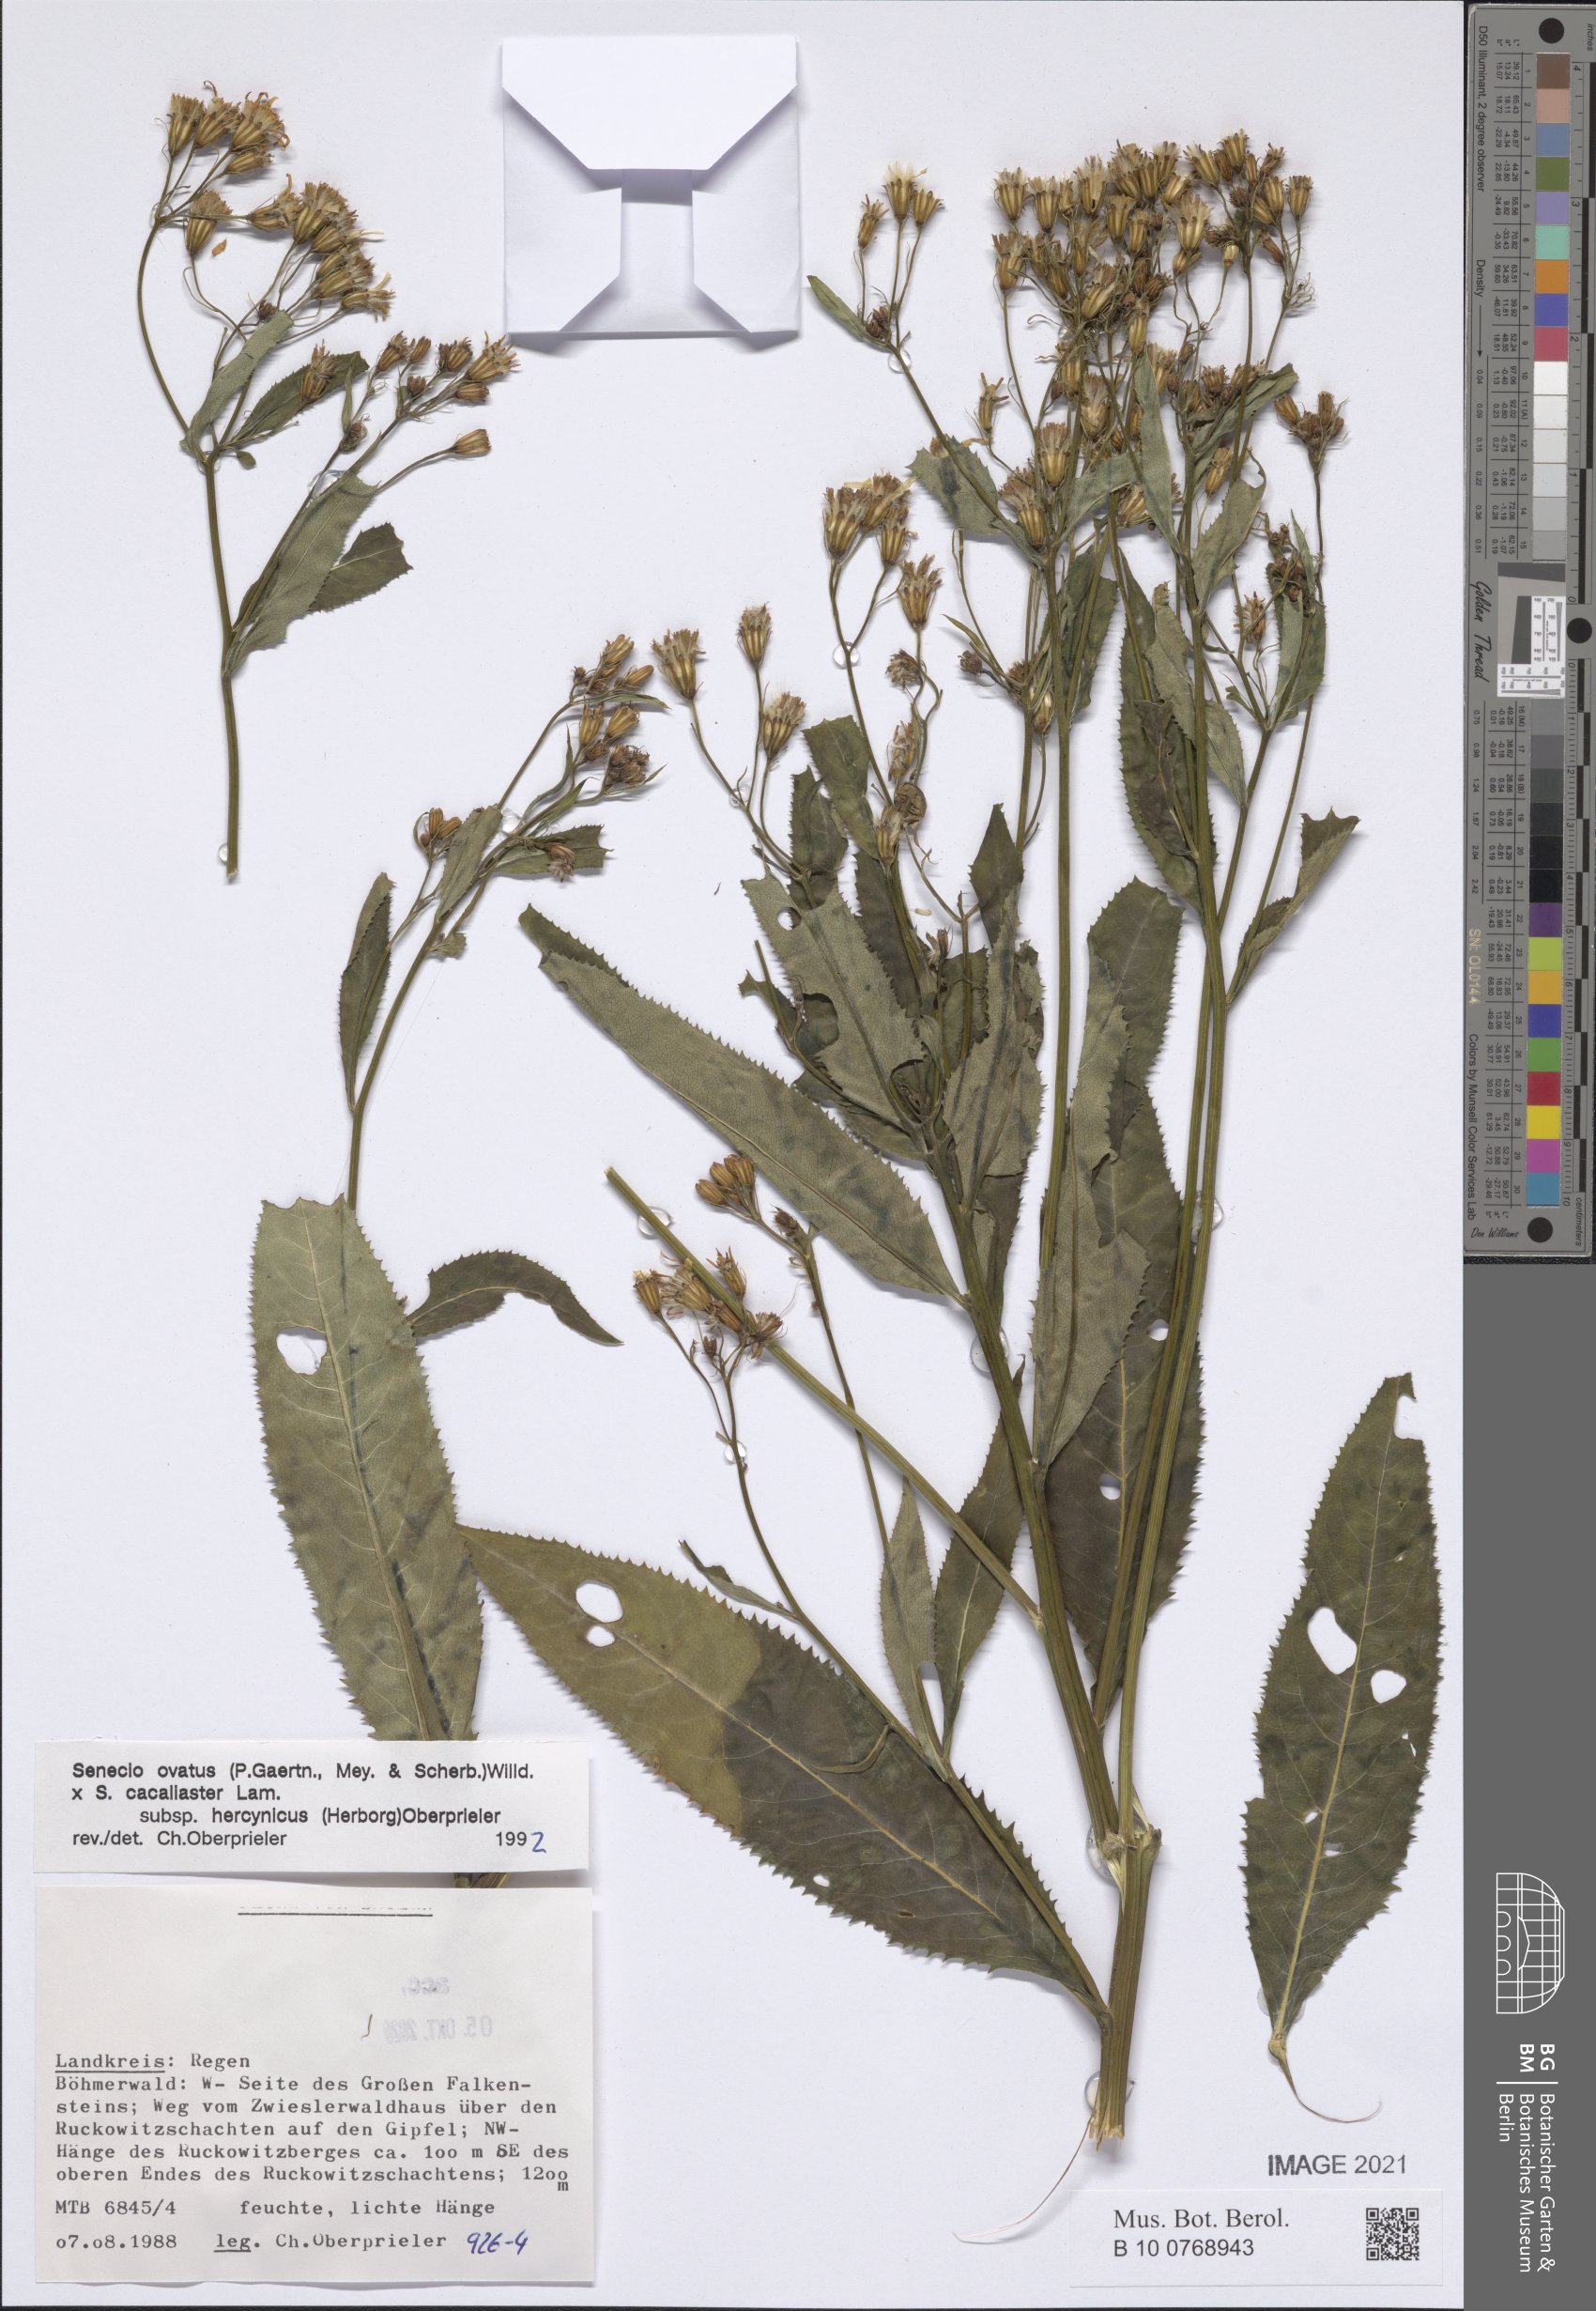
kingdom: Plantae
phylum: Tracheophyta
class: Magnoliopsida
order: Asterales
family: Asteraceae
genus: Senecio
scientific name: Senecio ovatus
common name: Wood ragwort
